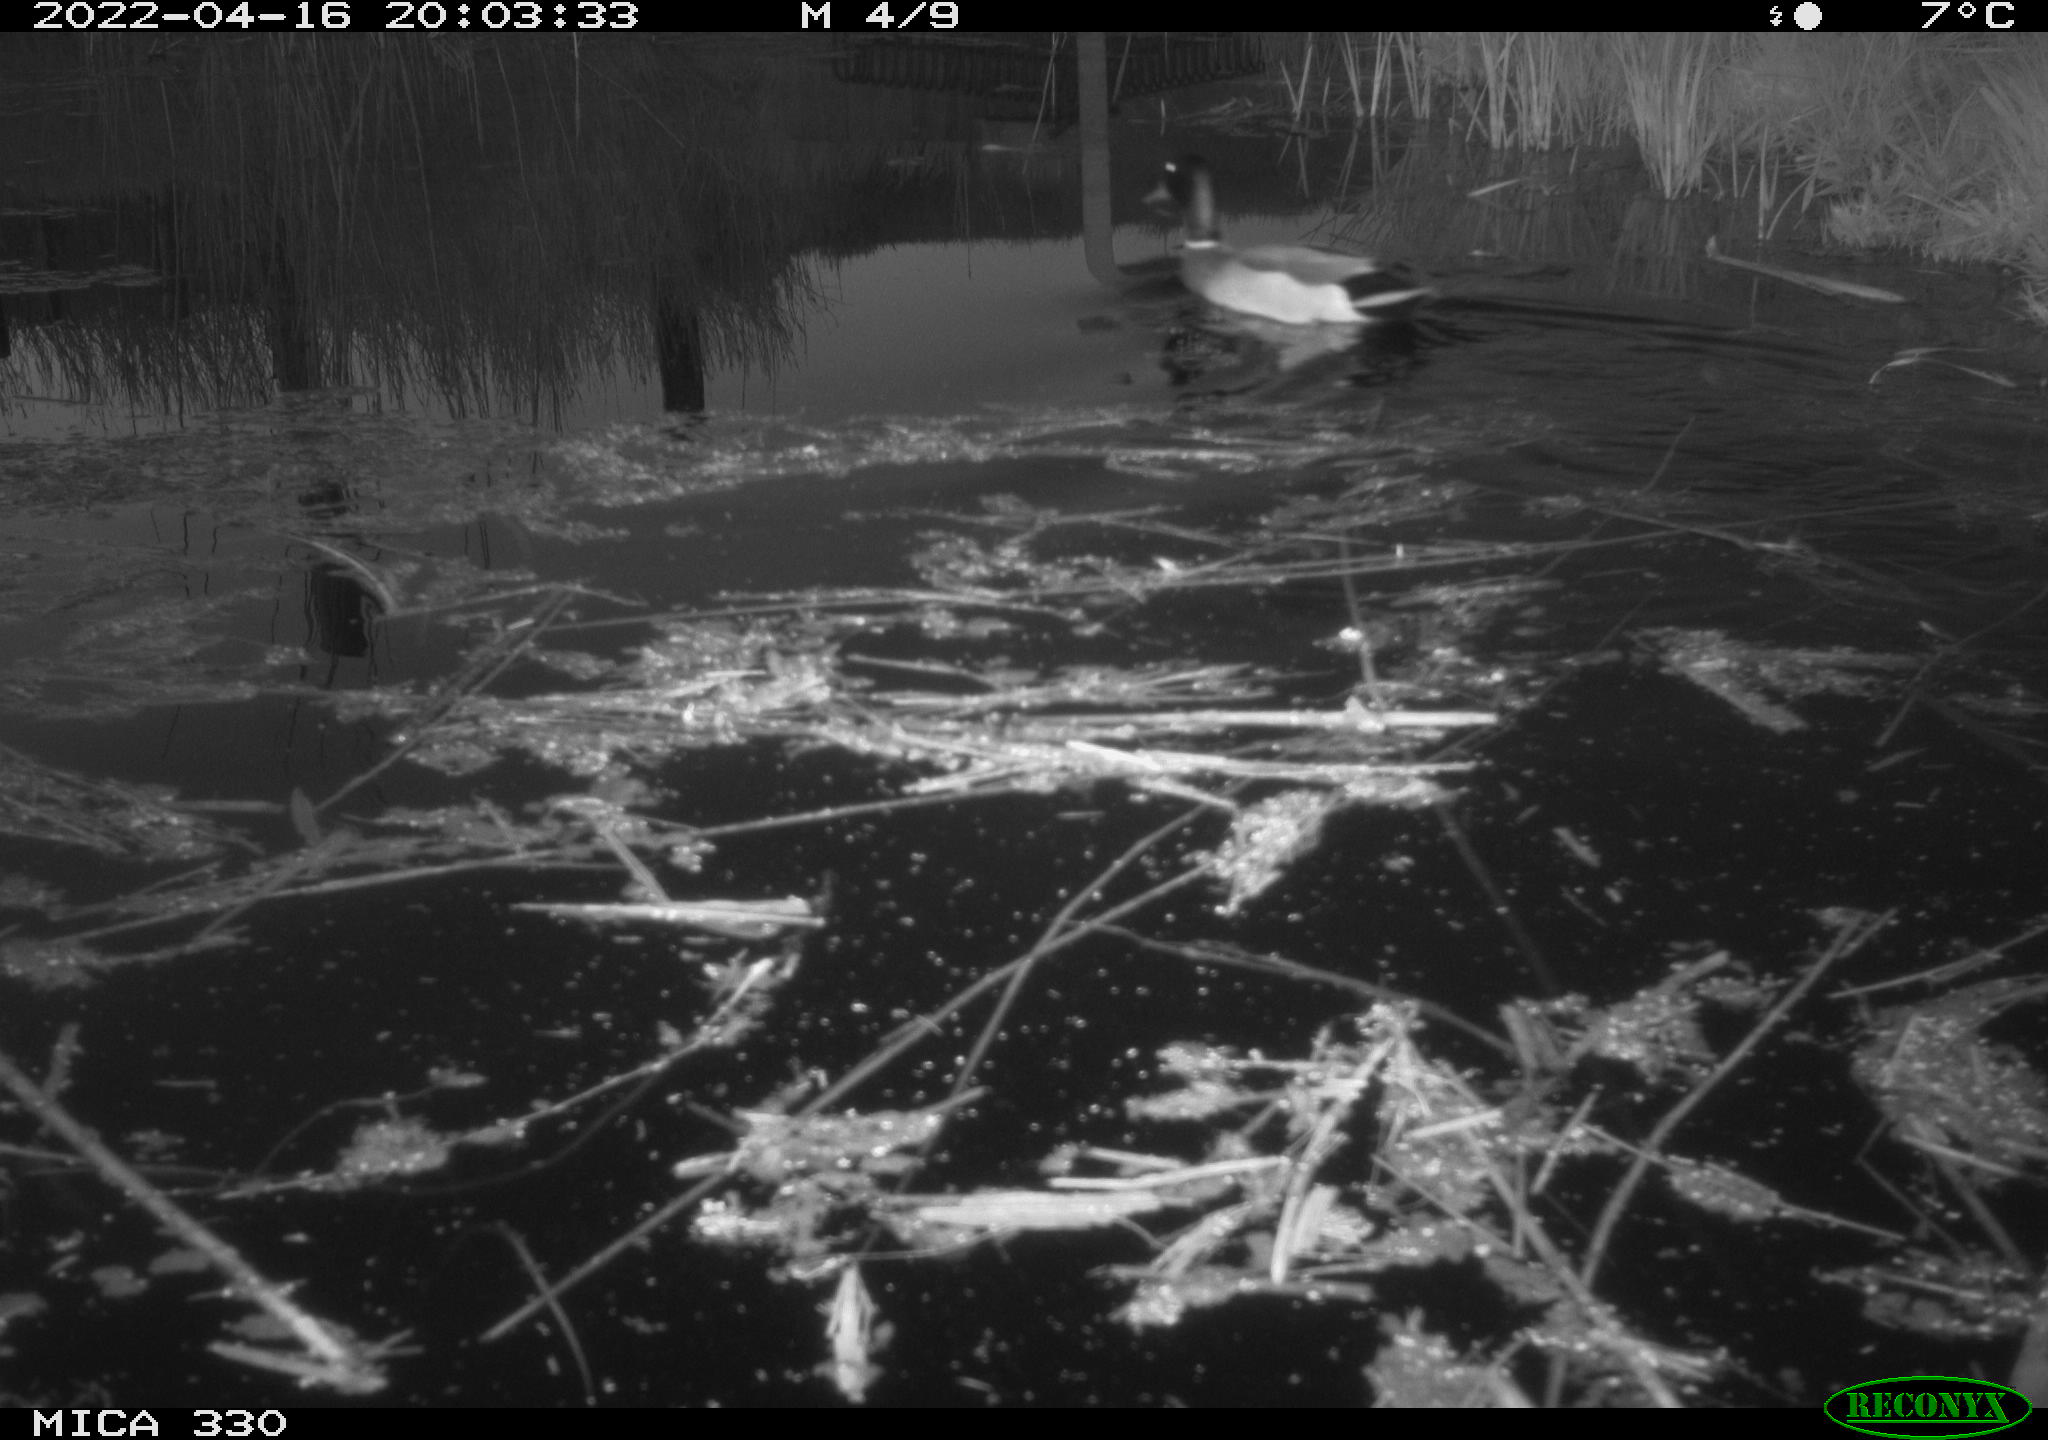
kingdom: Animalia
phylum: Chordata
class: Aves
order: Anseriformes
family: Anatidae
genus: Anas
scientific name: Anas platyrhynchos
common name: Mallard
